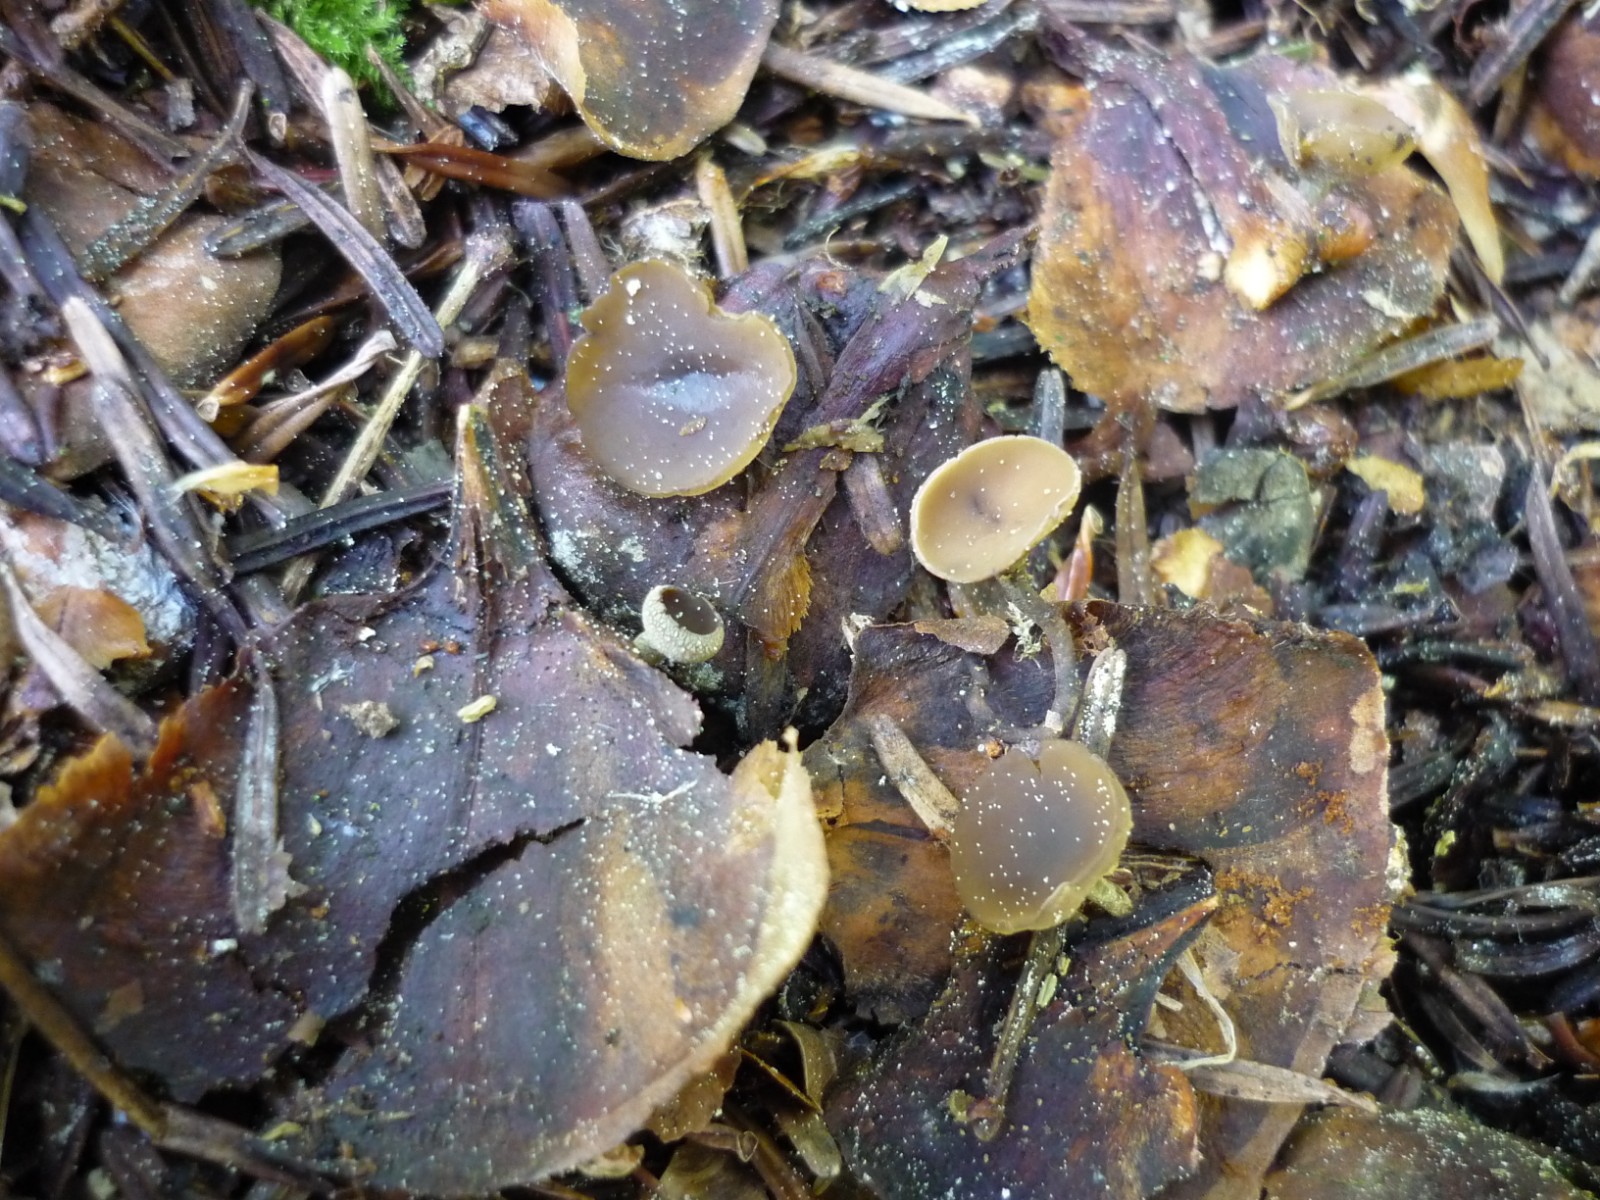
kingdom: Fungi
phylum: Ascomycota
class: Leotiomycetes
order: Helotiales
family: Sclerotiniaceae
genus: Ciboria
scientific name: Ciboria rufofusca
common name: kogleskæl-knoldskive
